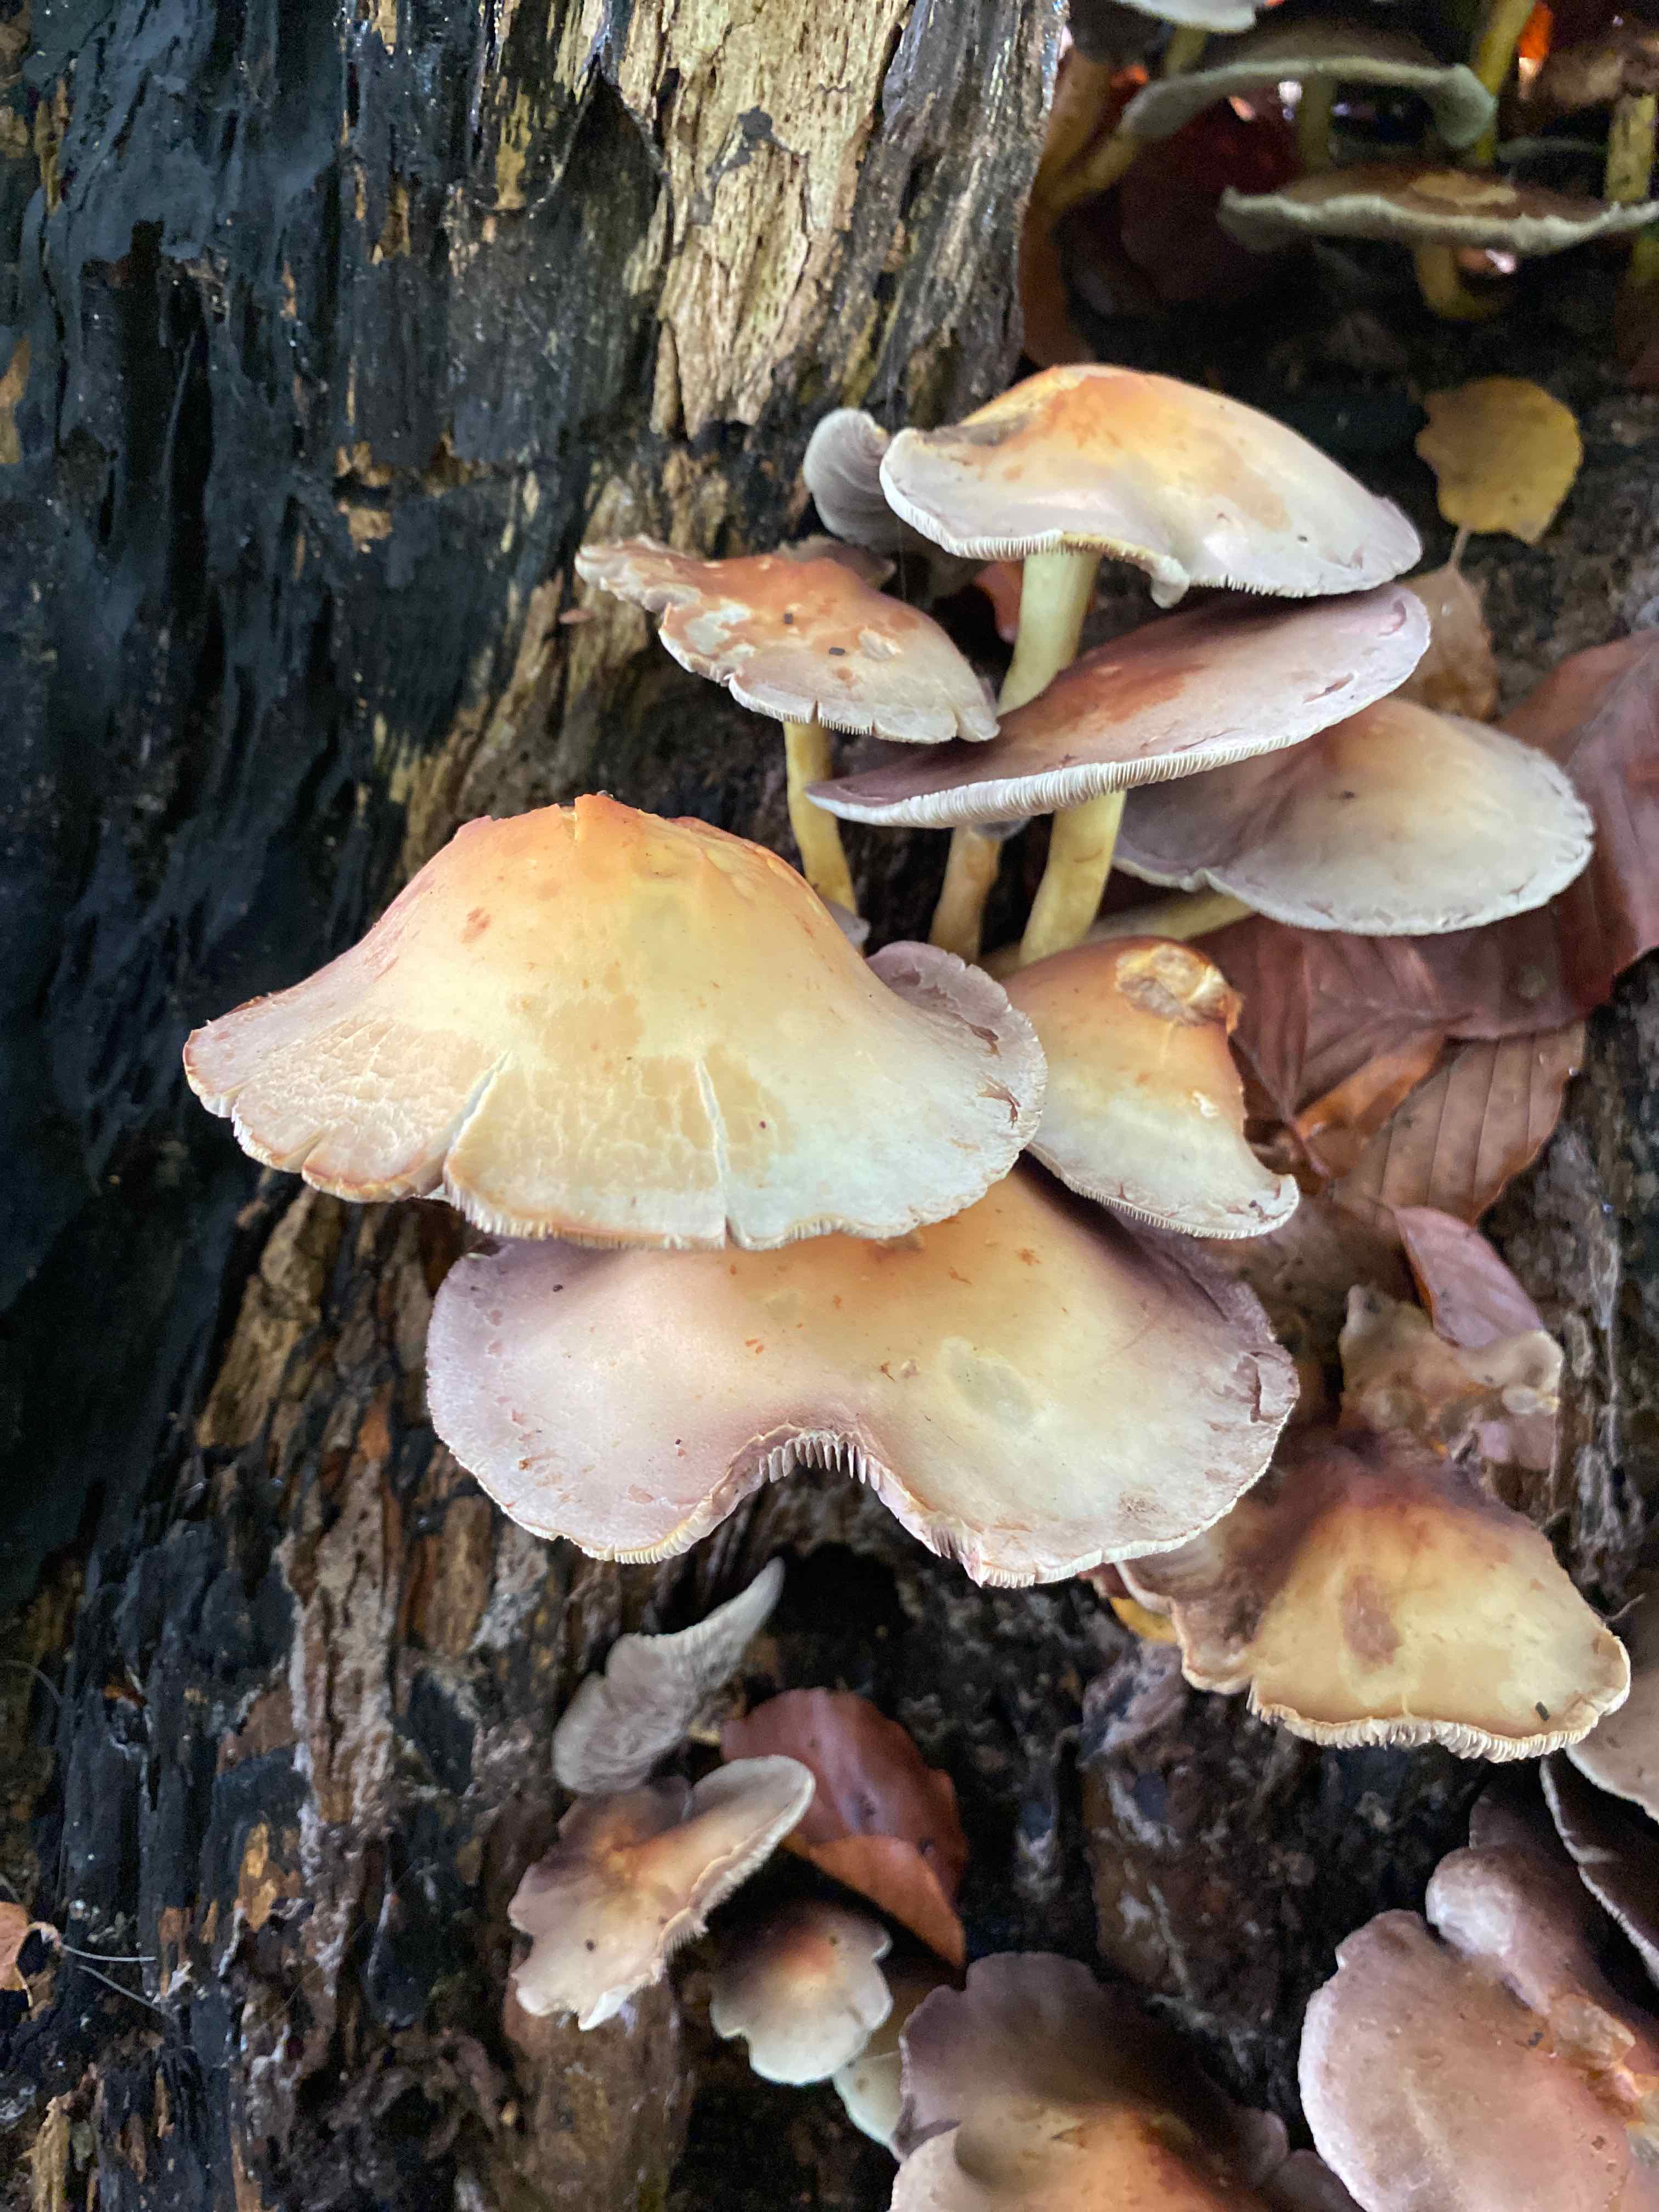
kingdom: Fungi
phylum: Basidiomycota
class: Agaricomycetes
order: Agaricales
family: Strophariaceae
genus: Hypholoma
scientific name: Hypholoma fasciculare
